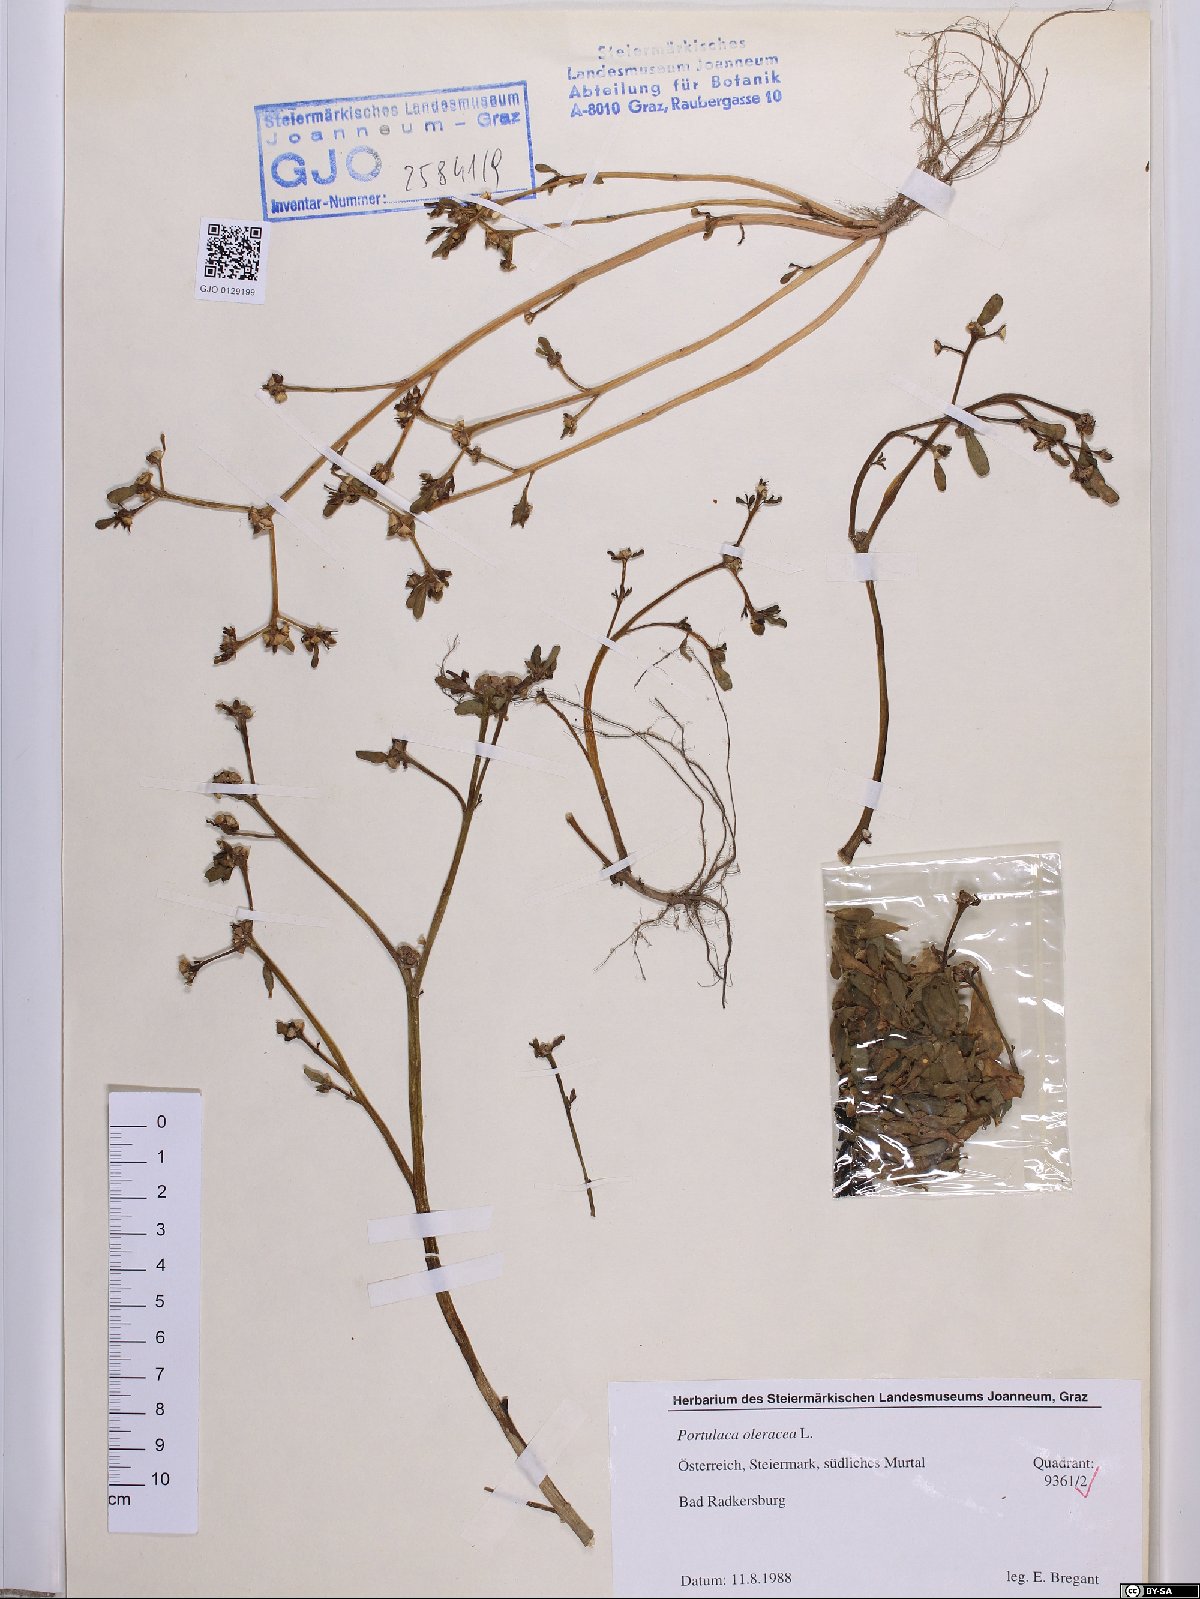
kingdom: Plantae
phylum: Tracheophyta
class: Magnoliopsida
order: Caryophyllales
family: Portulacaceae
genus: Portulaca
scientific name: Portulaca oleracea
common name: Common purslane
